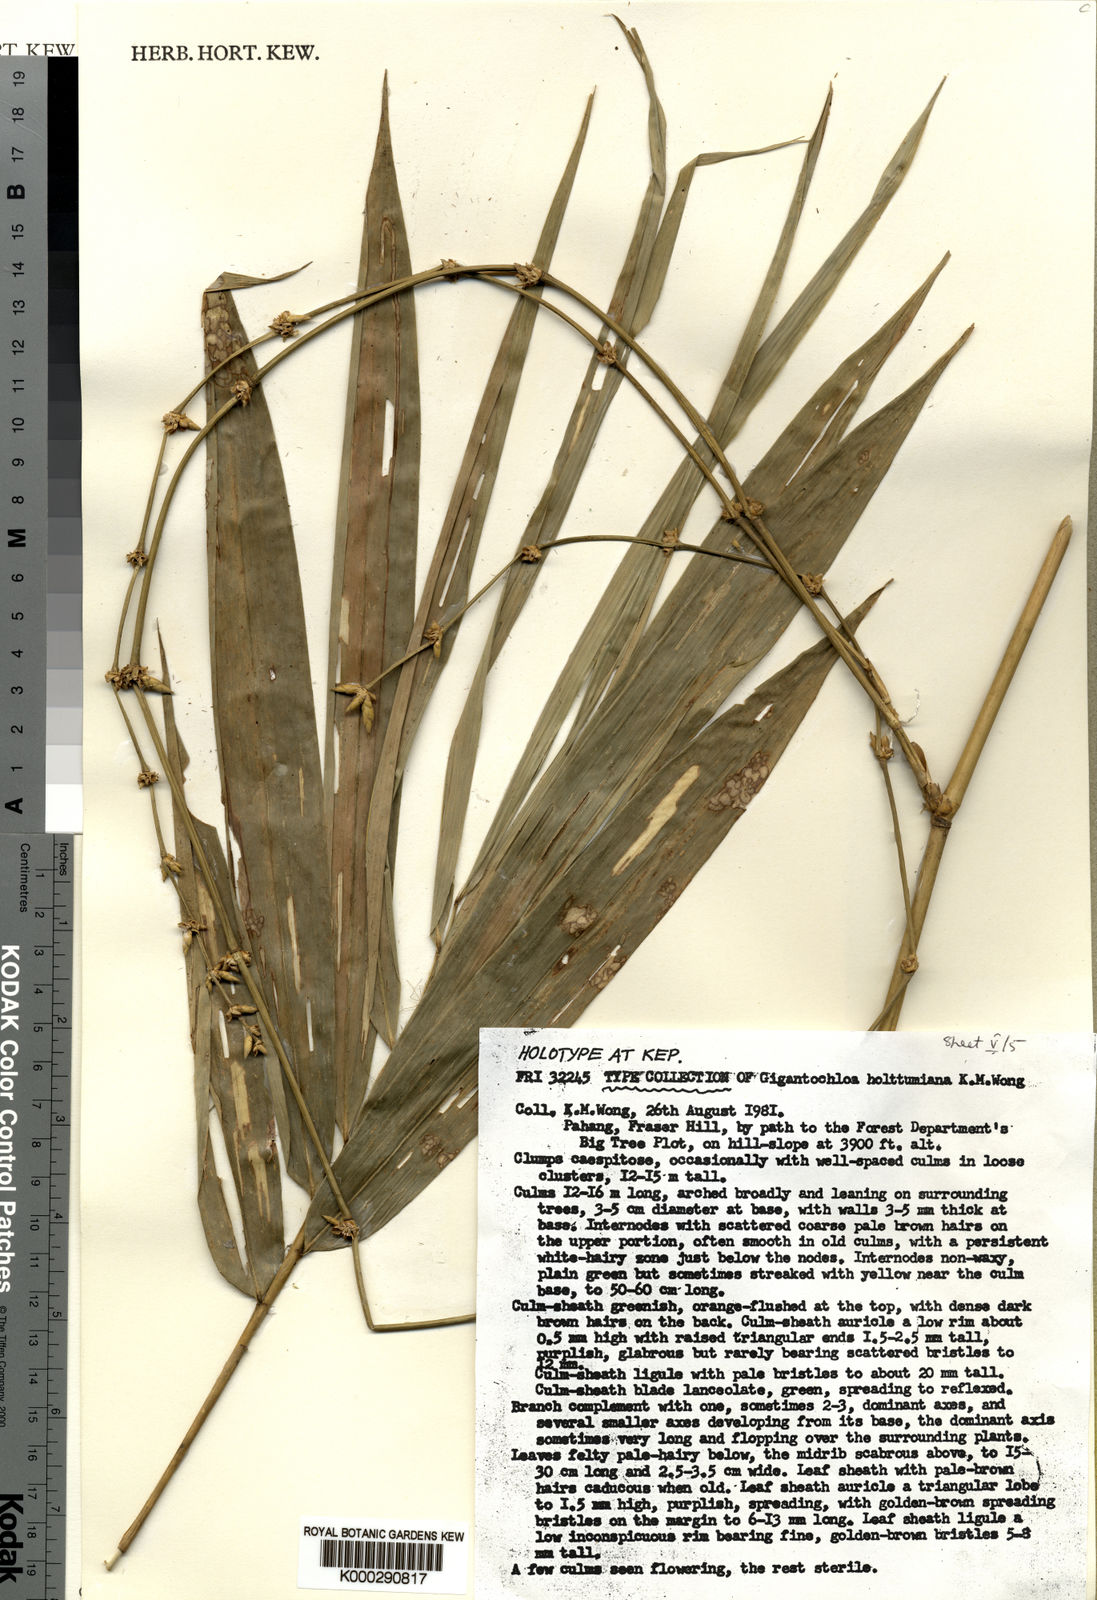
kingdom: Plantae
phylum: Tracheophyta
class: Liliopsida
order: Poales
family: Poaceae
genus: Gigantochloa
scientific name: Gigantochloa holttumiana
